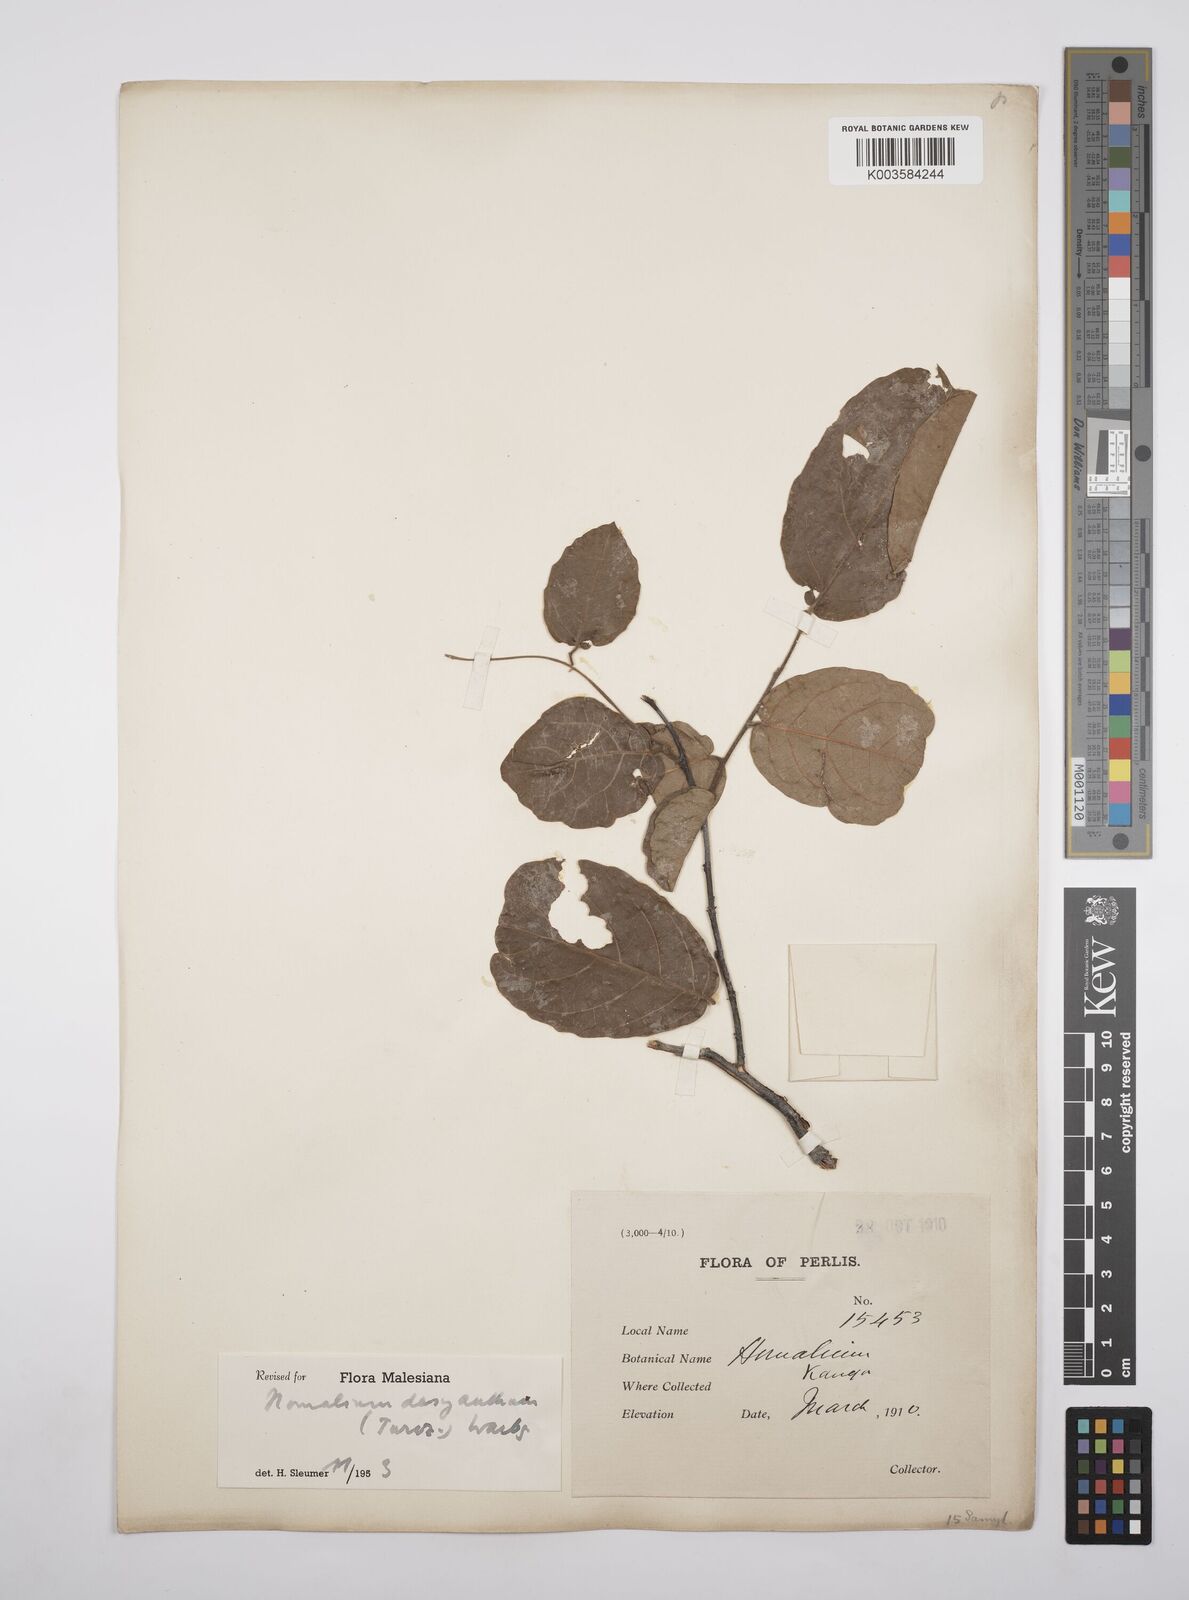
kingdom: Plantae
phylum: Tracheophyta
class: Magnoliopsida
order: Malpighiales
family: Salicaceae
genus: Homalium
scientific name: Homalium dasyanthum
